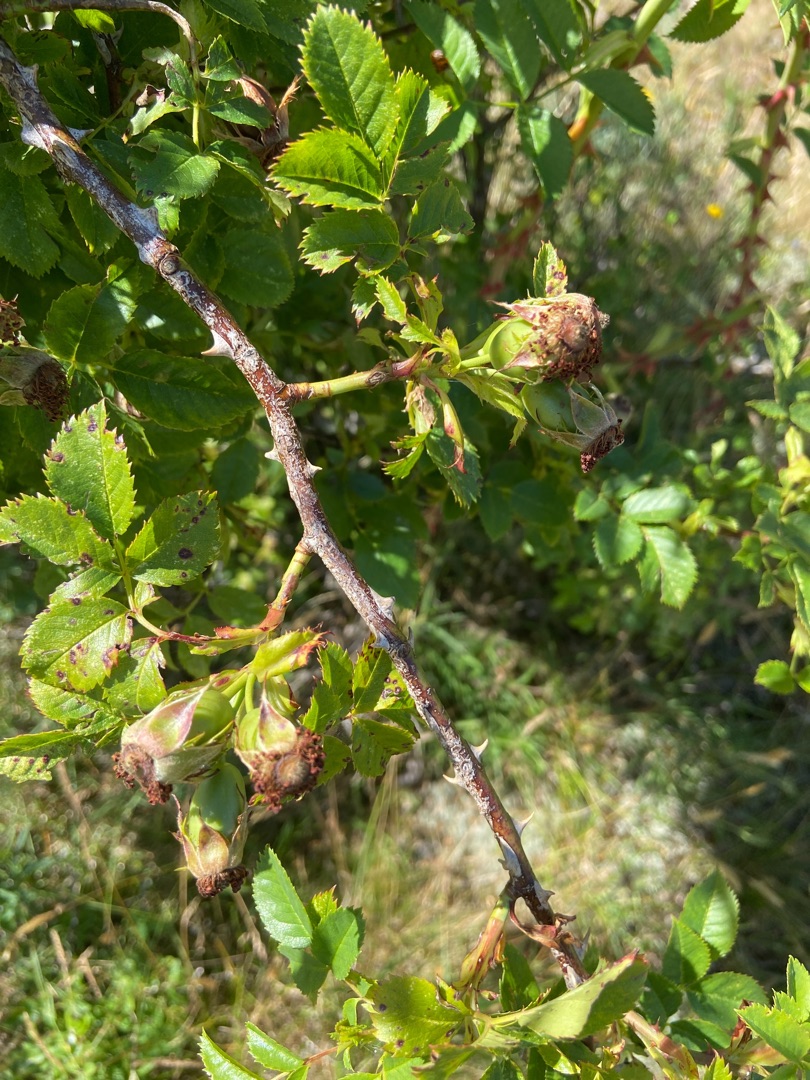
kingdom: Plantae
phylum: Tracheophyta
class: Magnoliopsida
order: Rosales
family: Rosaceae
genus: Rosa
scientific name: Rosa canina
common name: Glat hunde-rose
